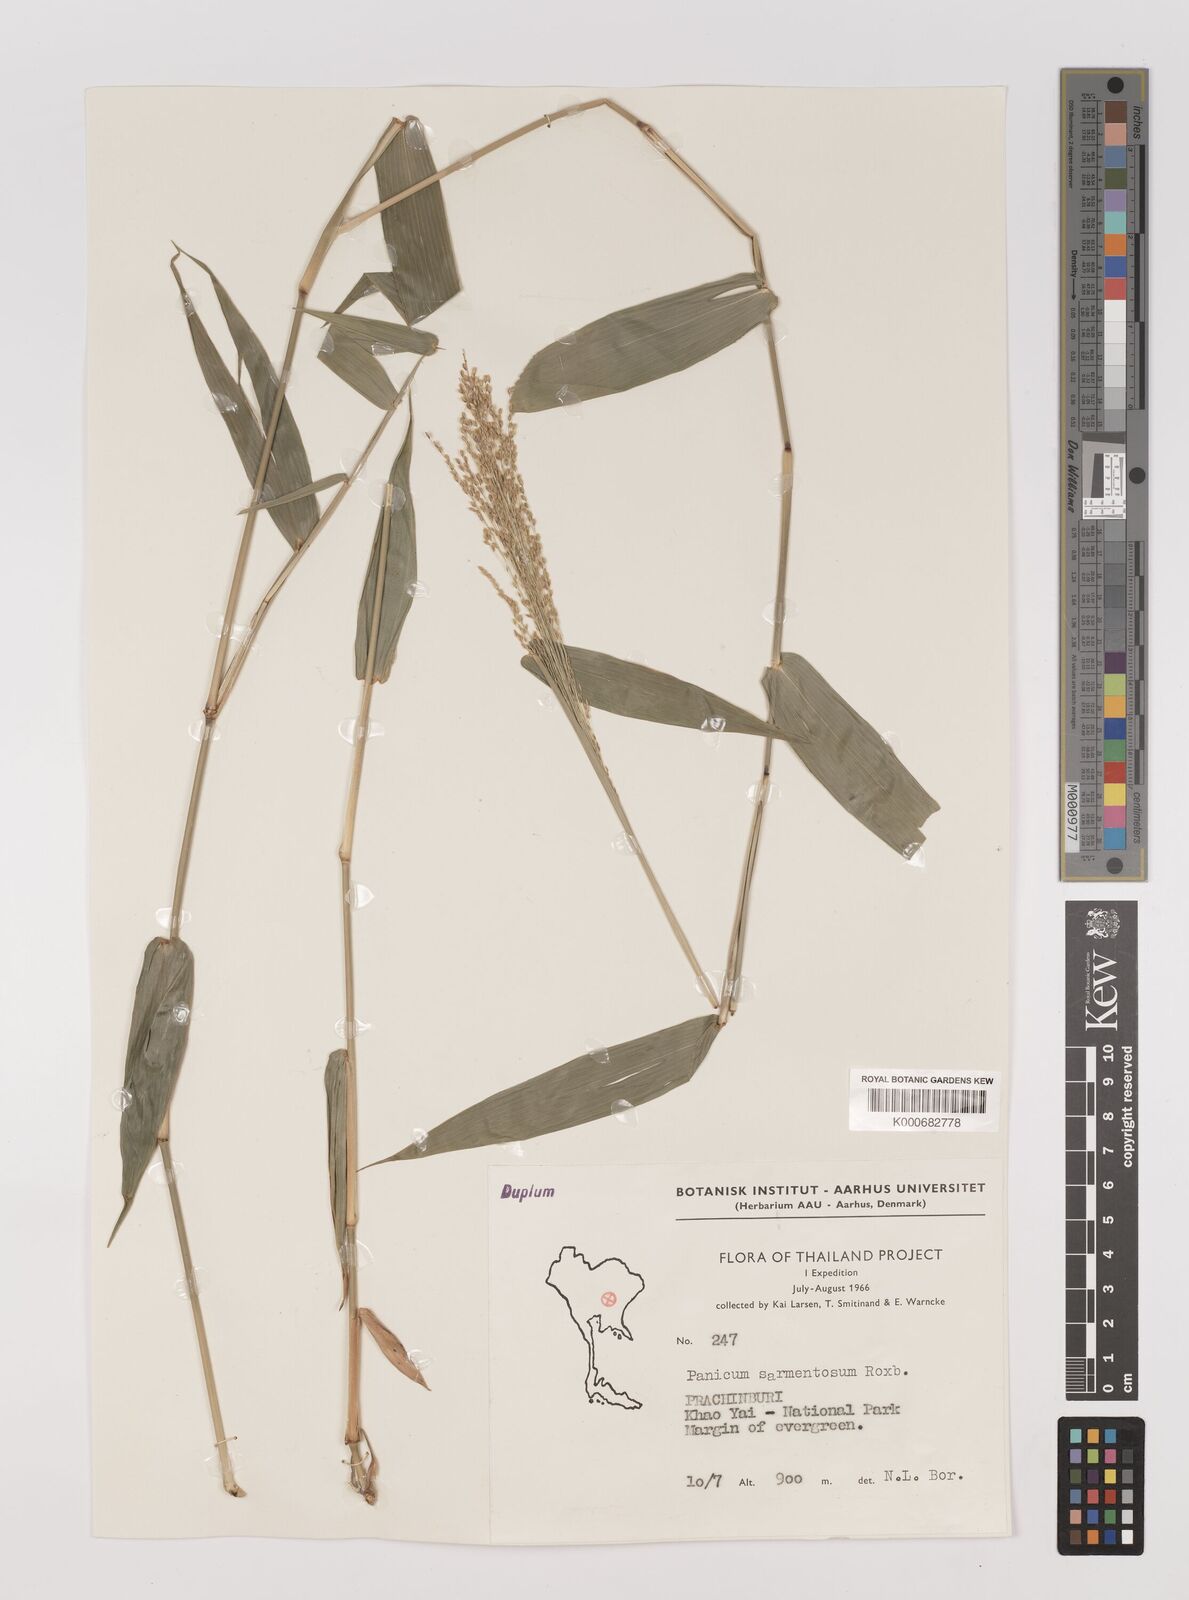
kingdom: Plantae
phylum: Tracheophyta
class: Liliopsida
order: Poales
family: Poaceae
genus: Panicum
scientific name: Panicum notatum
